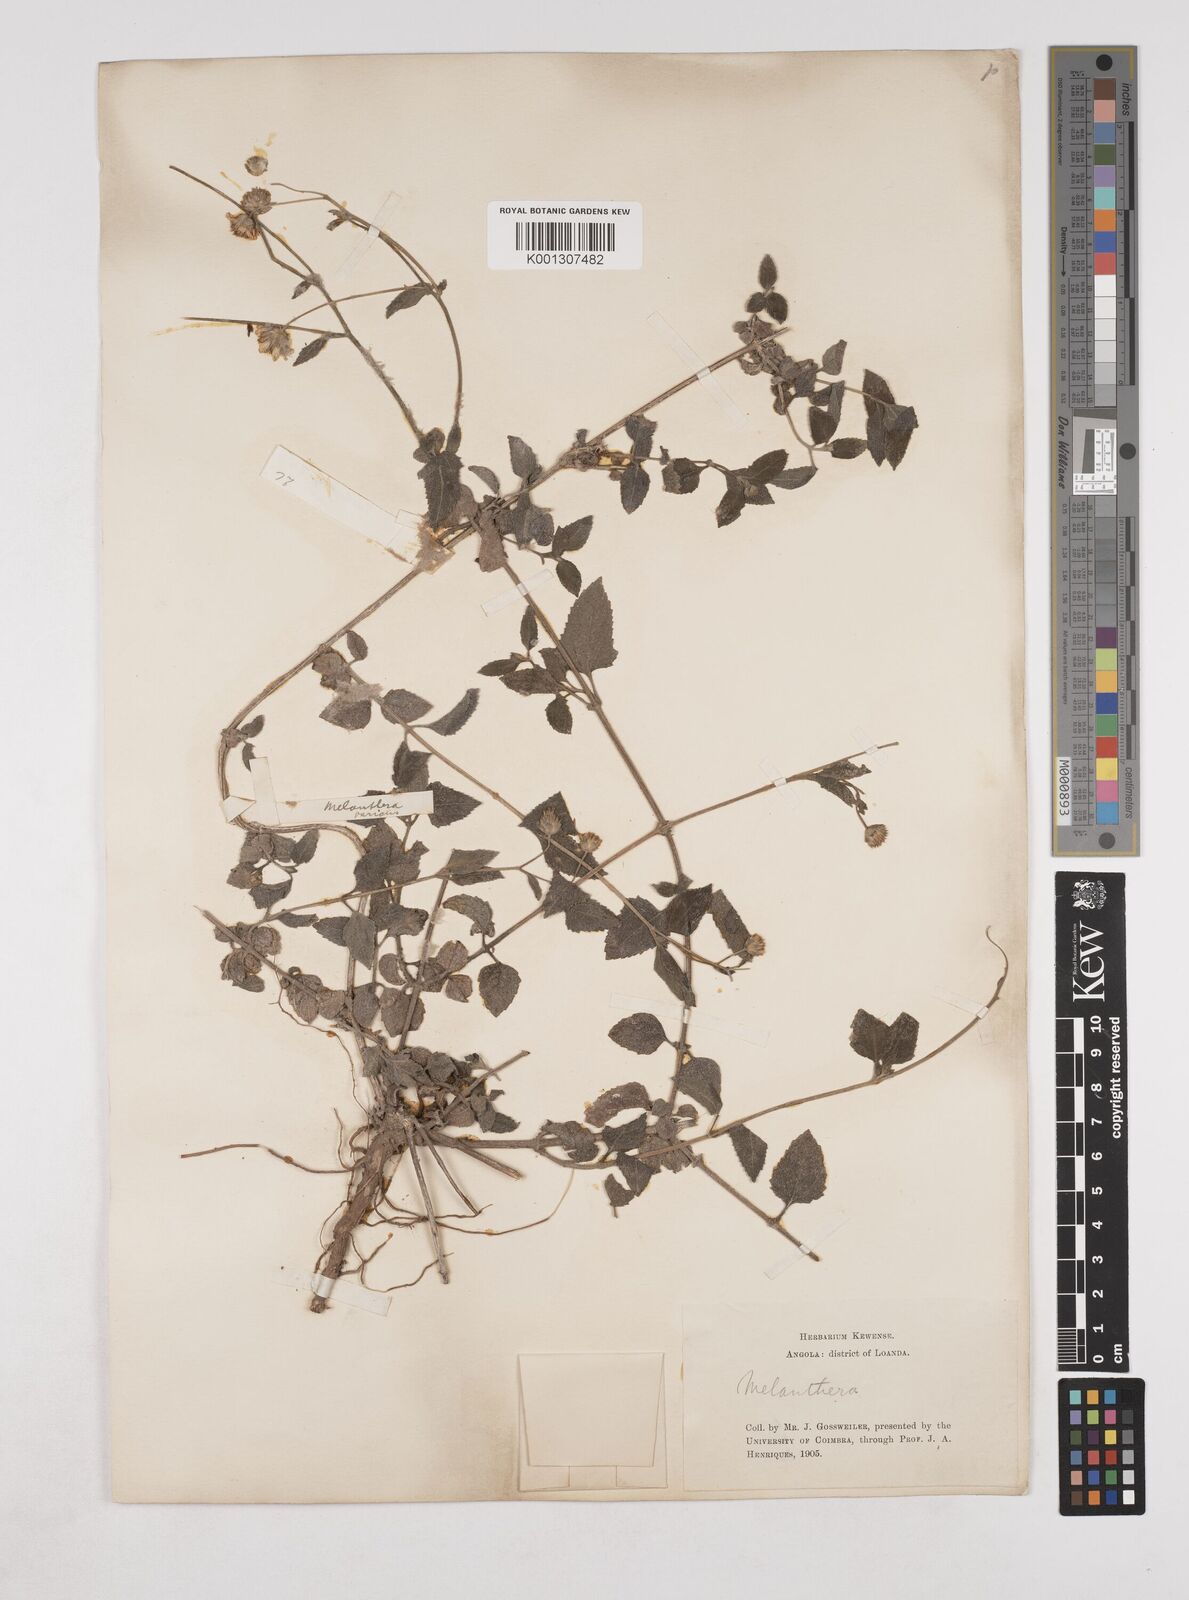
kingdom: Plantae
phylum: Tracheophyta
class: Magnoliopsida
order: Asterales
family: Asteraceae
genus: Lipotriche
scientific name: Lipotriche marlothiana
